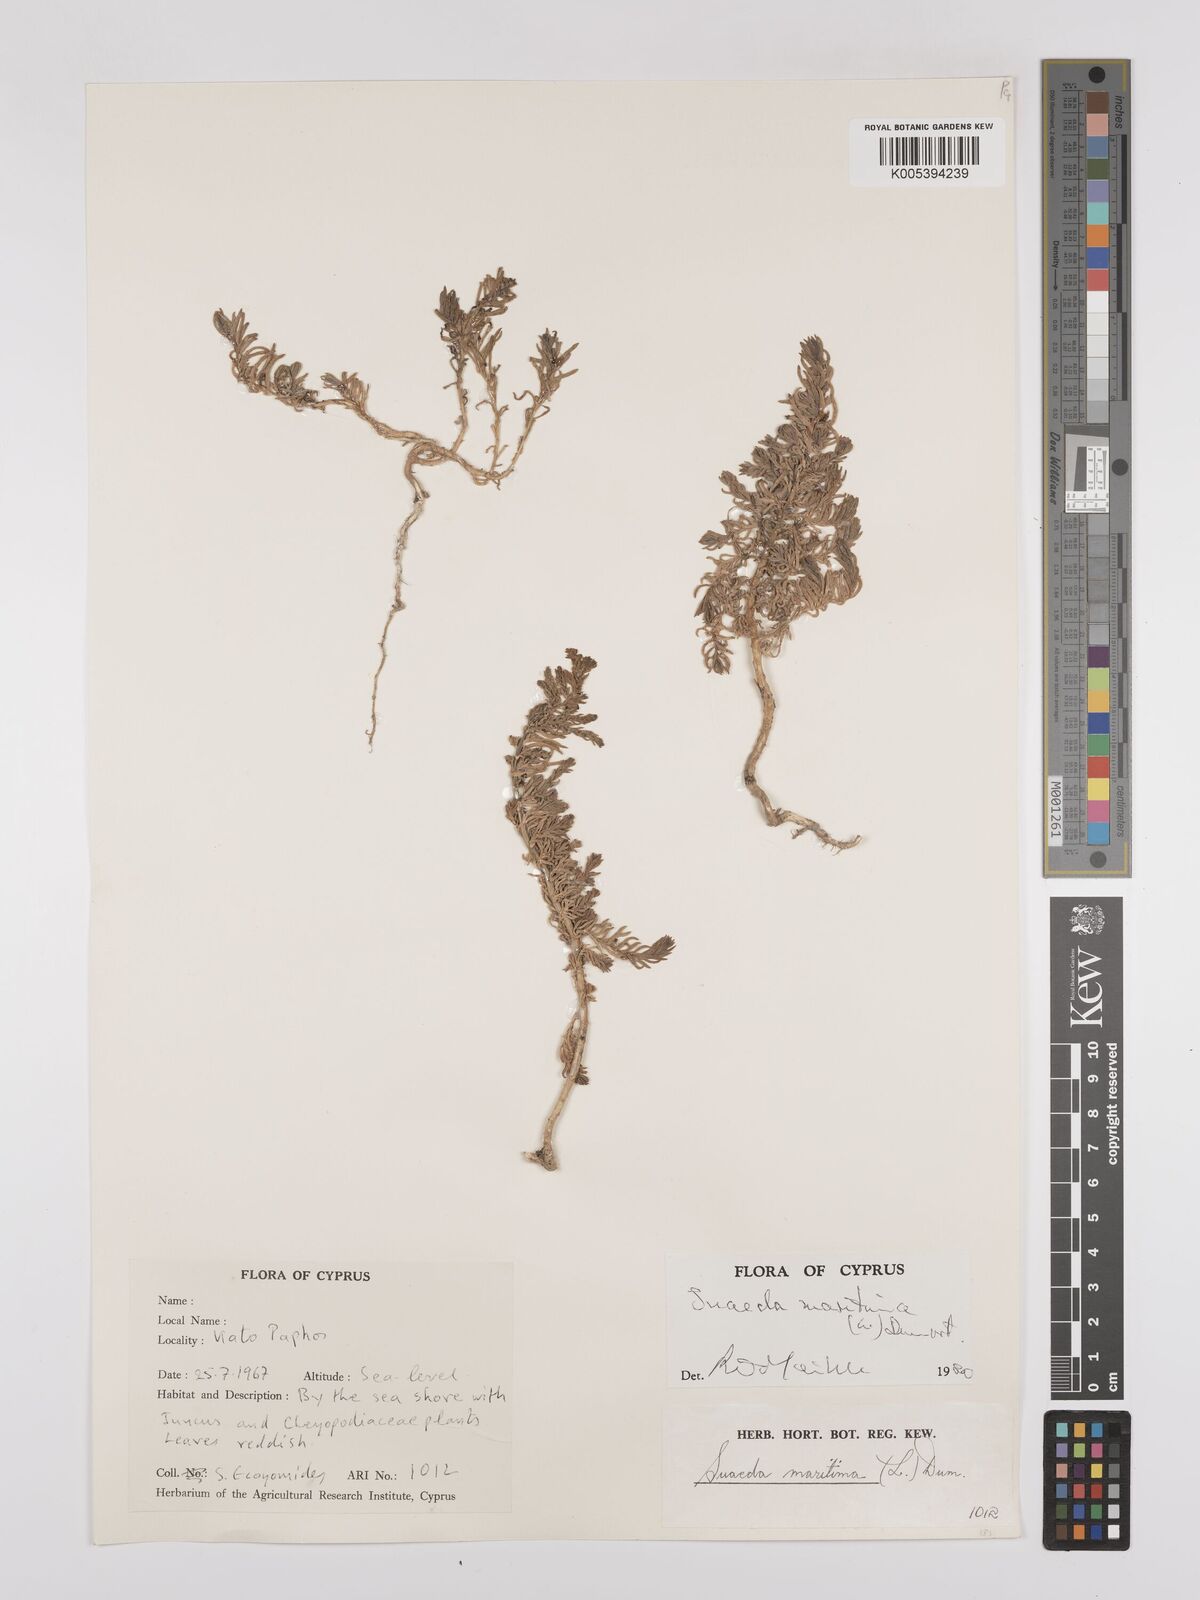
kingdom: Plantae
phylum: Tracheophyta
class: Magnoliopsida
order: Caryophyllales
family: Amaranthaceae
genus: Suaeda
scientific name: Suaeda
